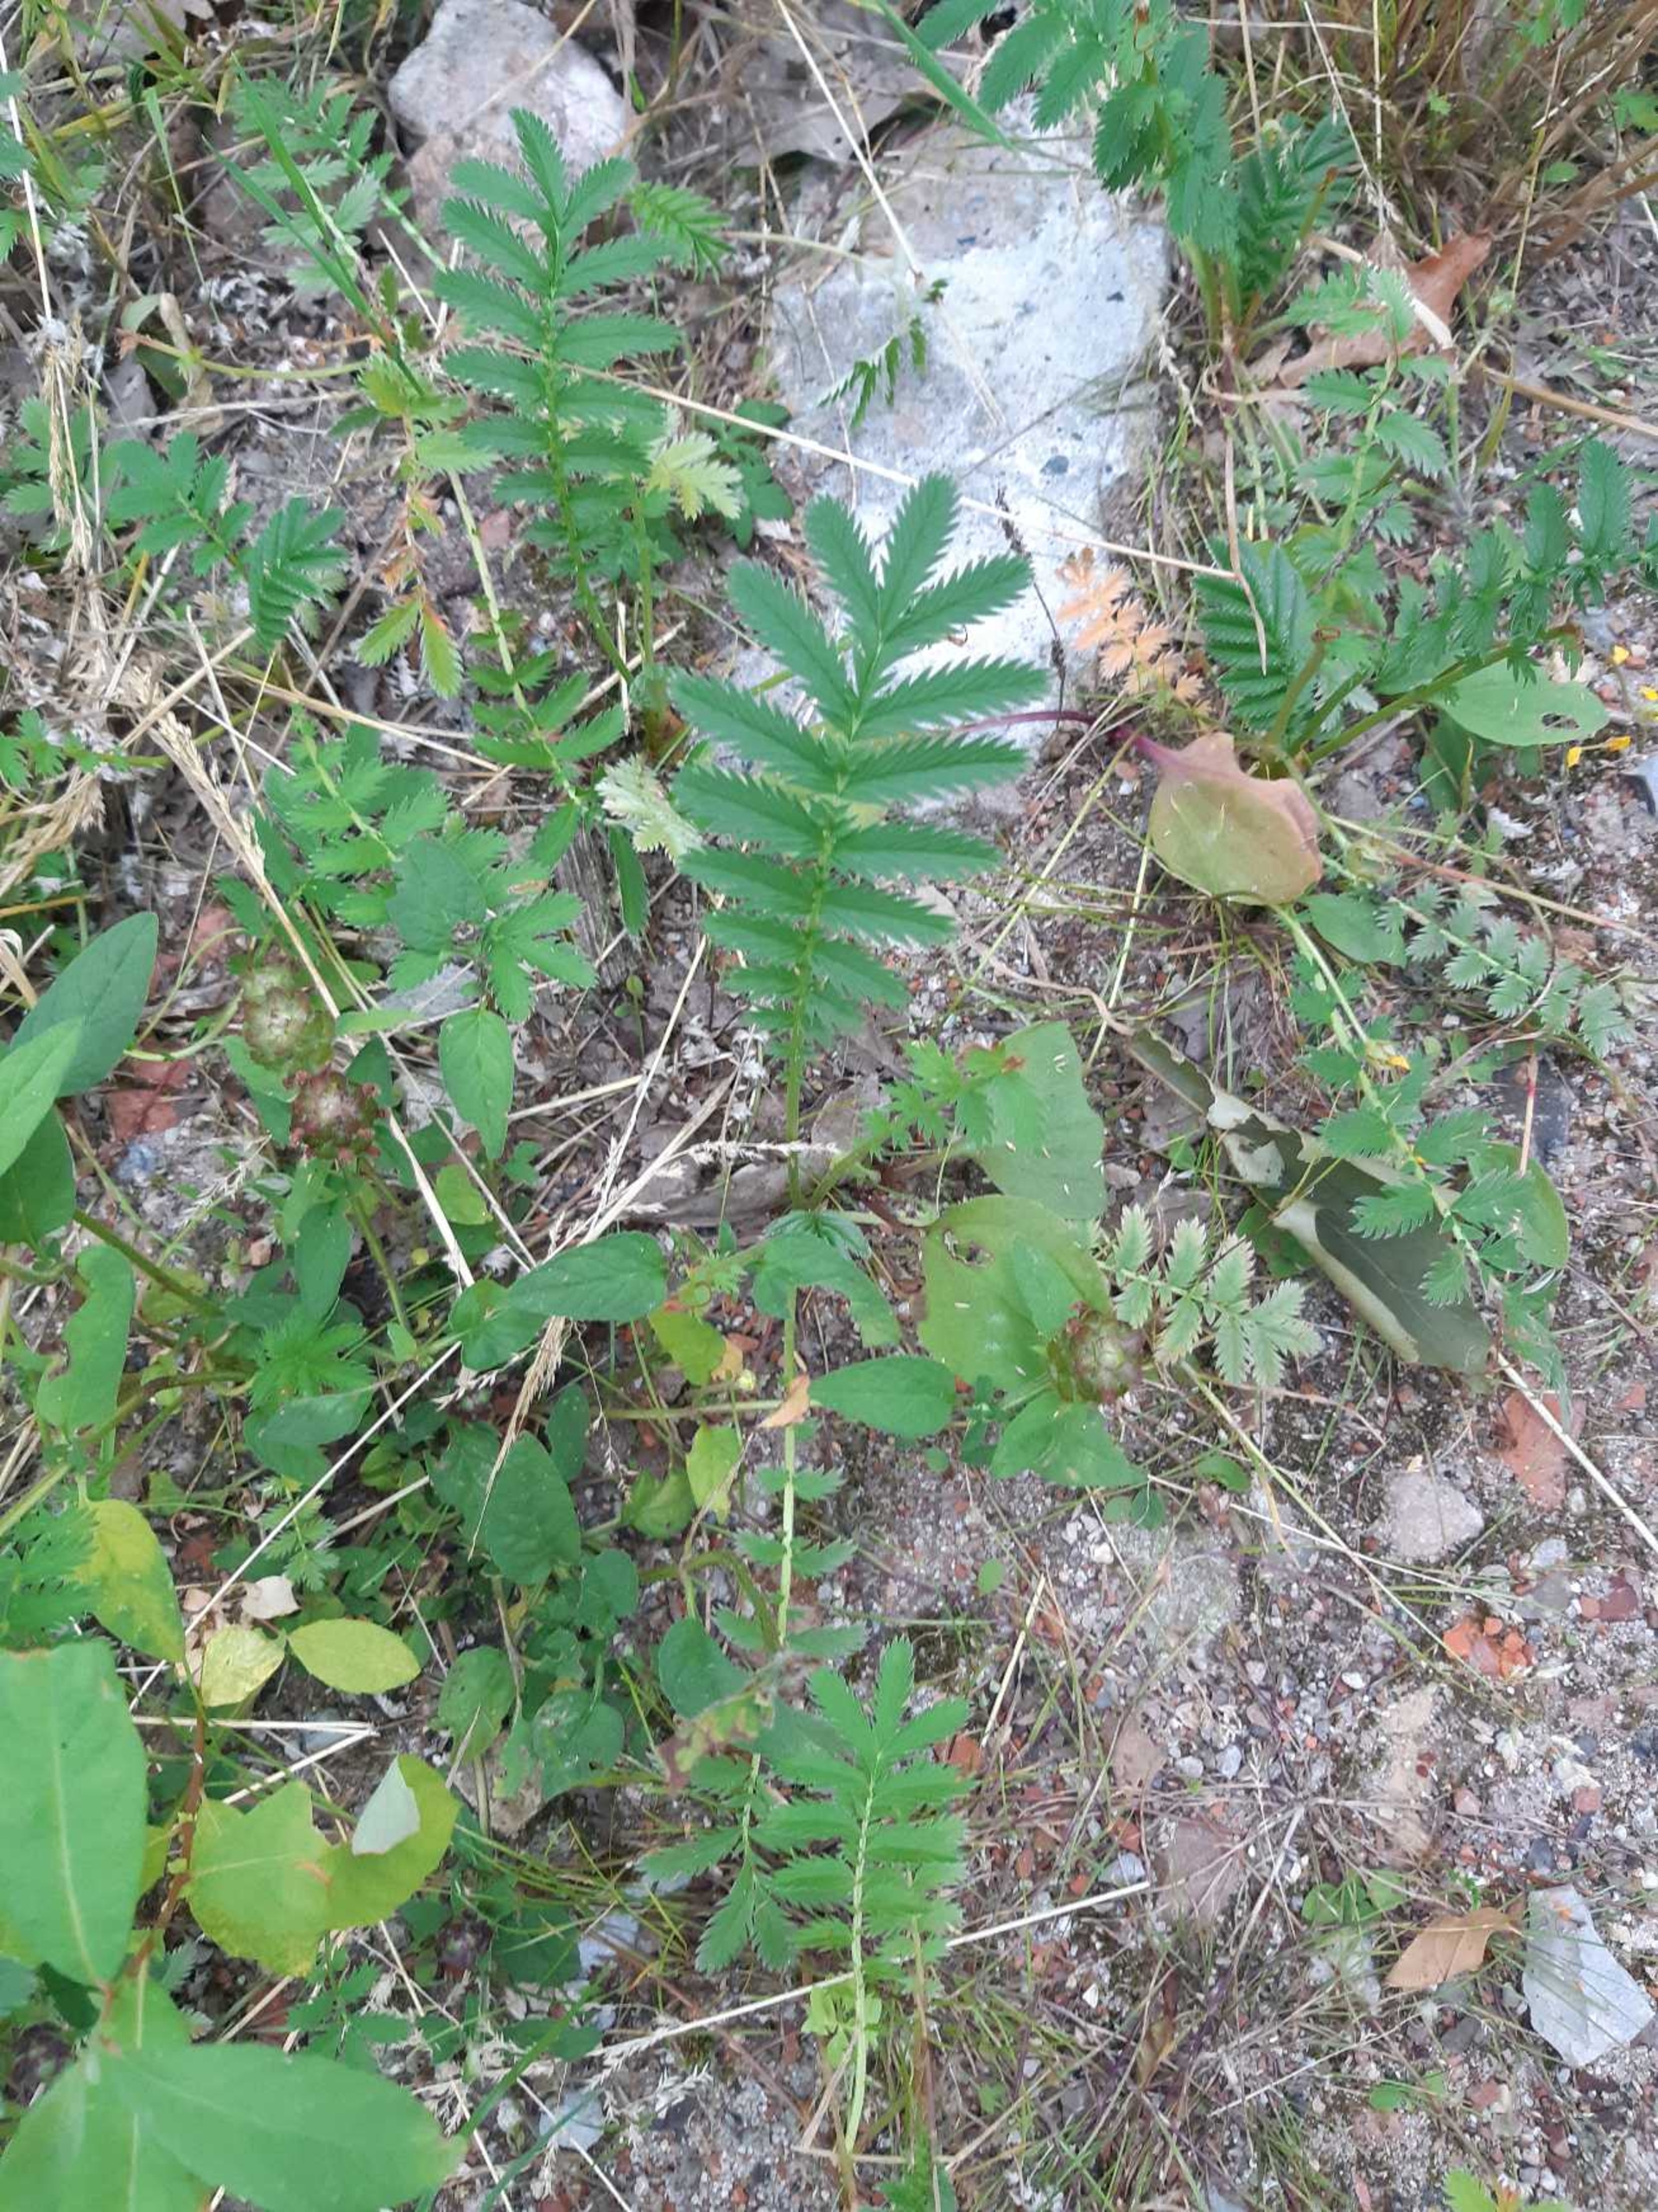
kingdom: Plantae
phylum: Tracheophyta
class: Magnoliopsida
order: Rosales
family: Rosaceae
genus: Argentina
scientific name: Argentina anserina
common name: Gåsepotentil
